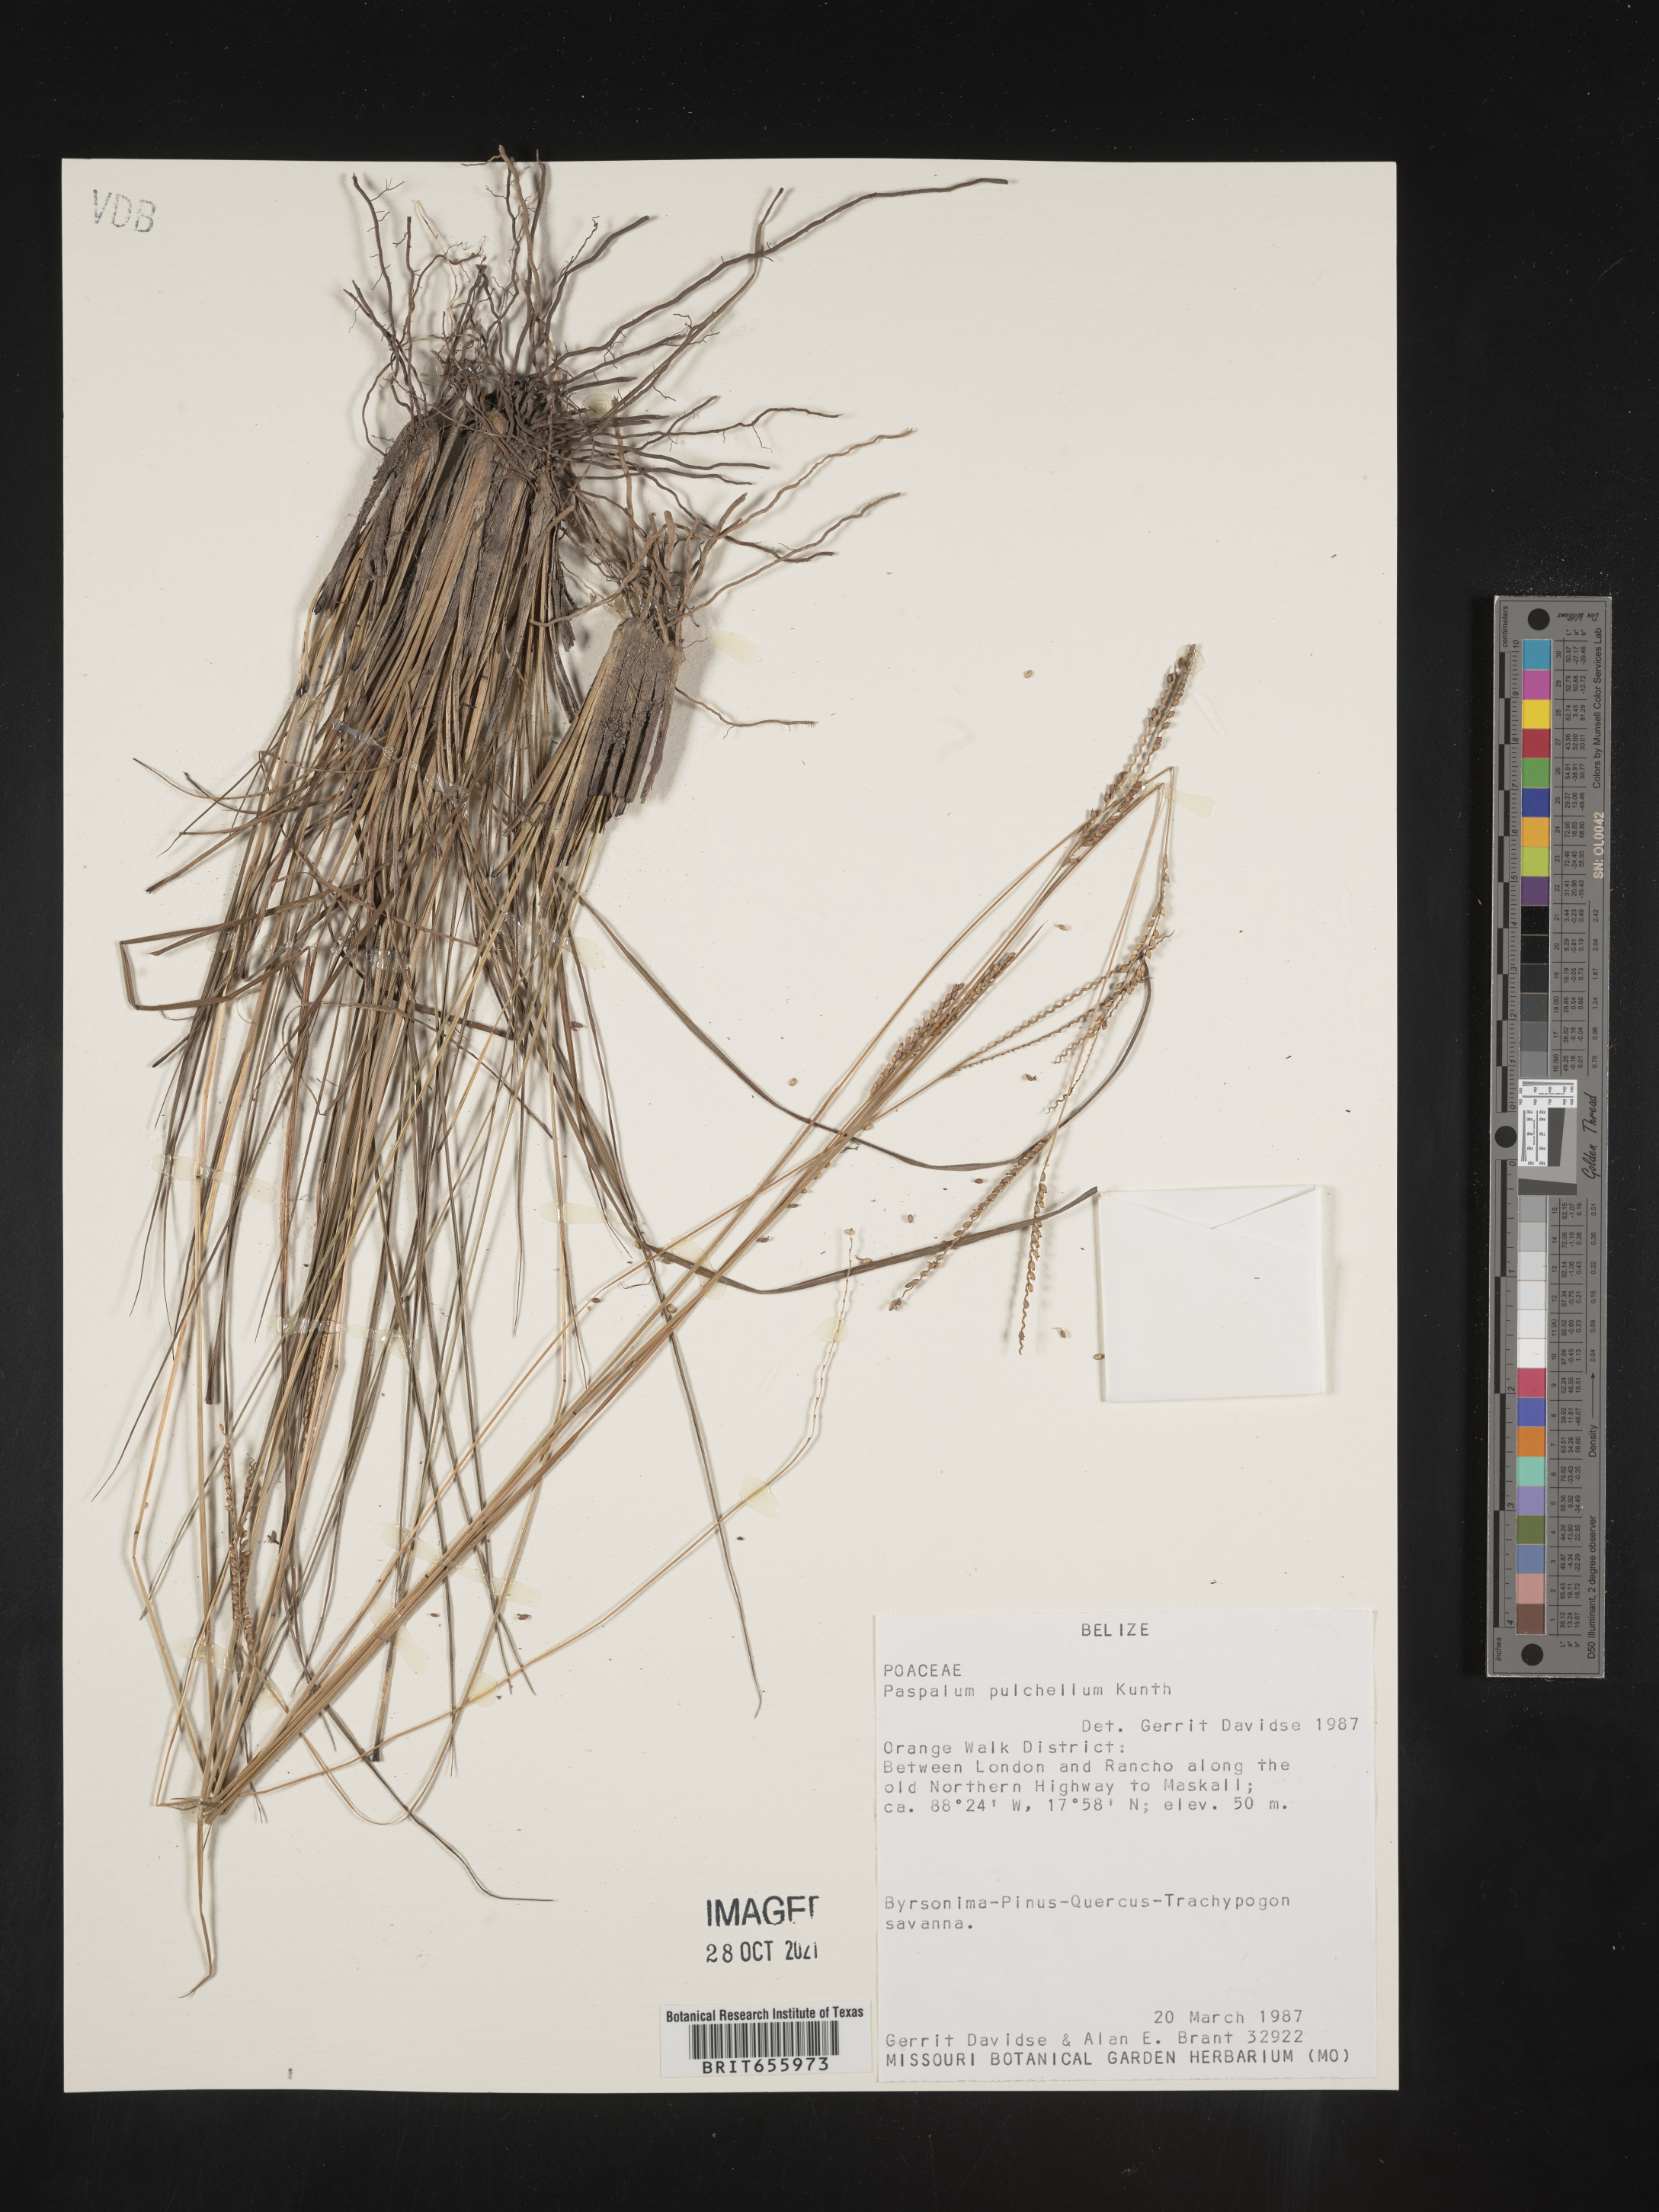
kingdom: Plantae
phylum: Tracheophyta
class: Liliopsida
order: Poales
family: Poaceae
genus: Paspalum
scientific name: Paspalum
